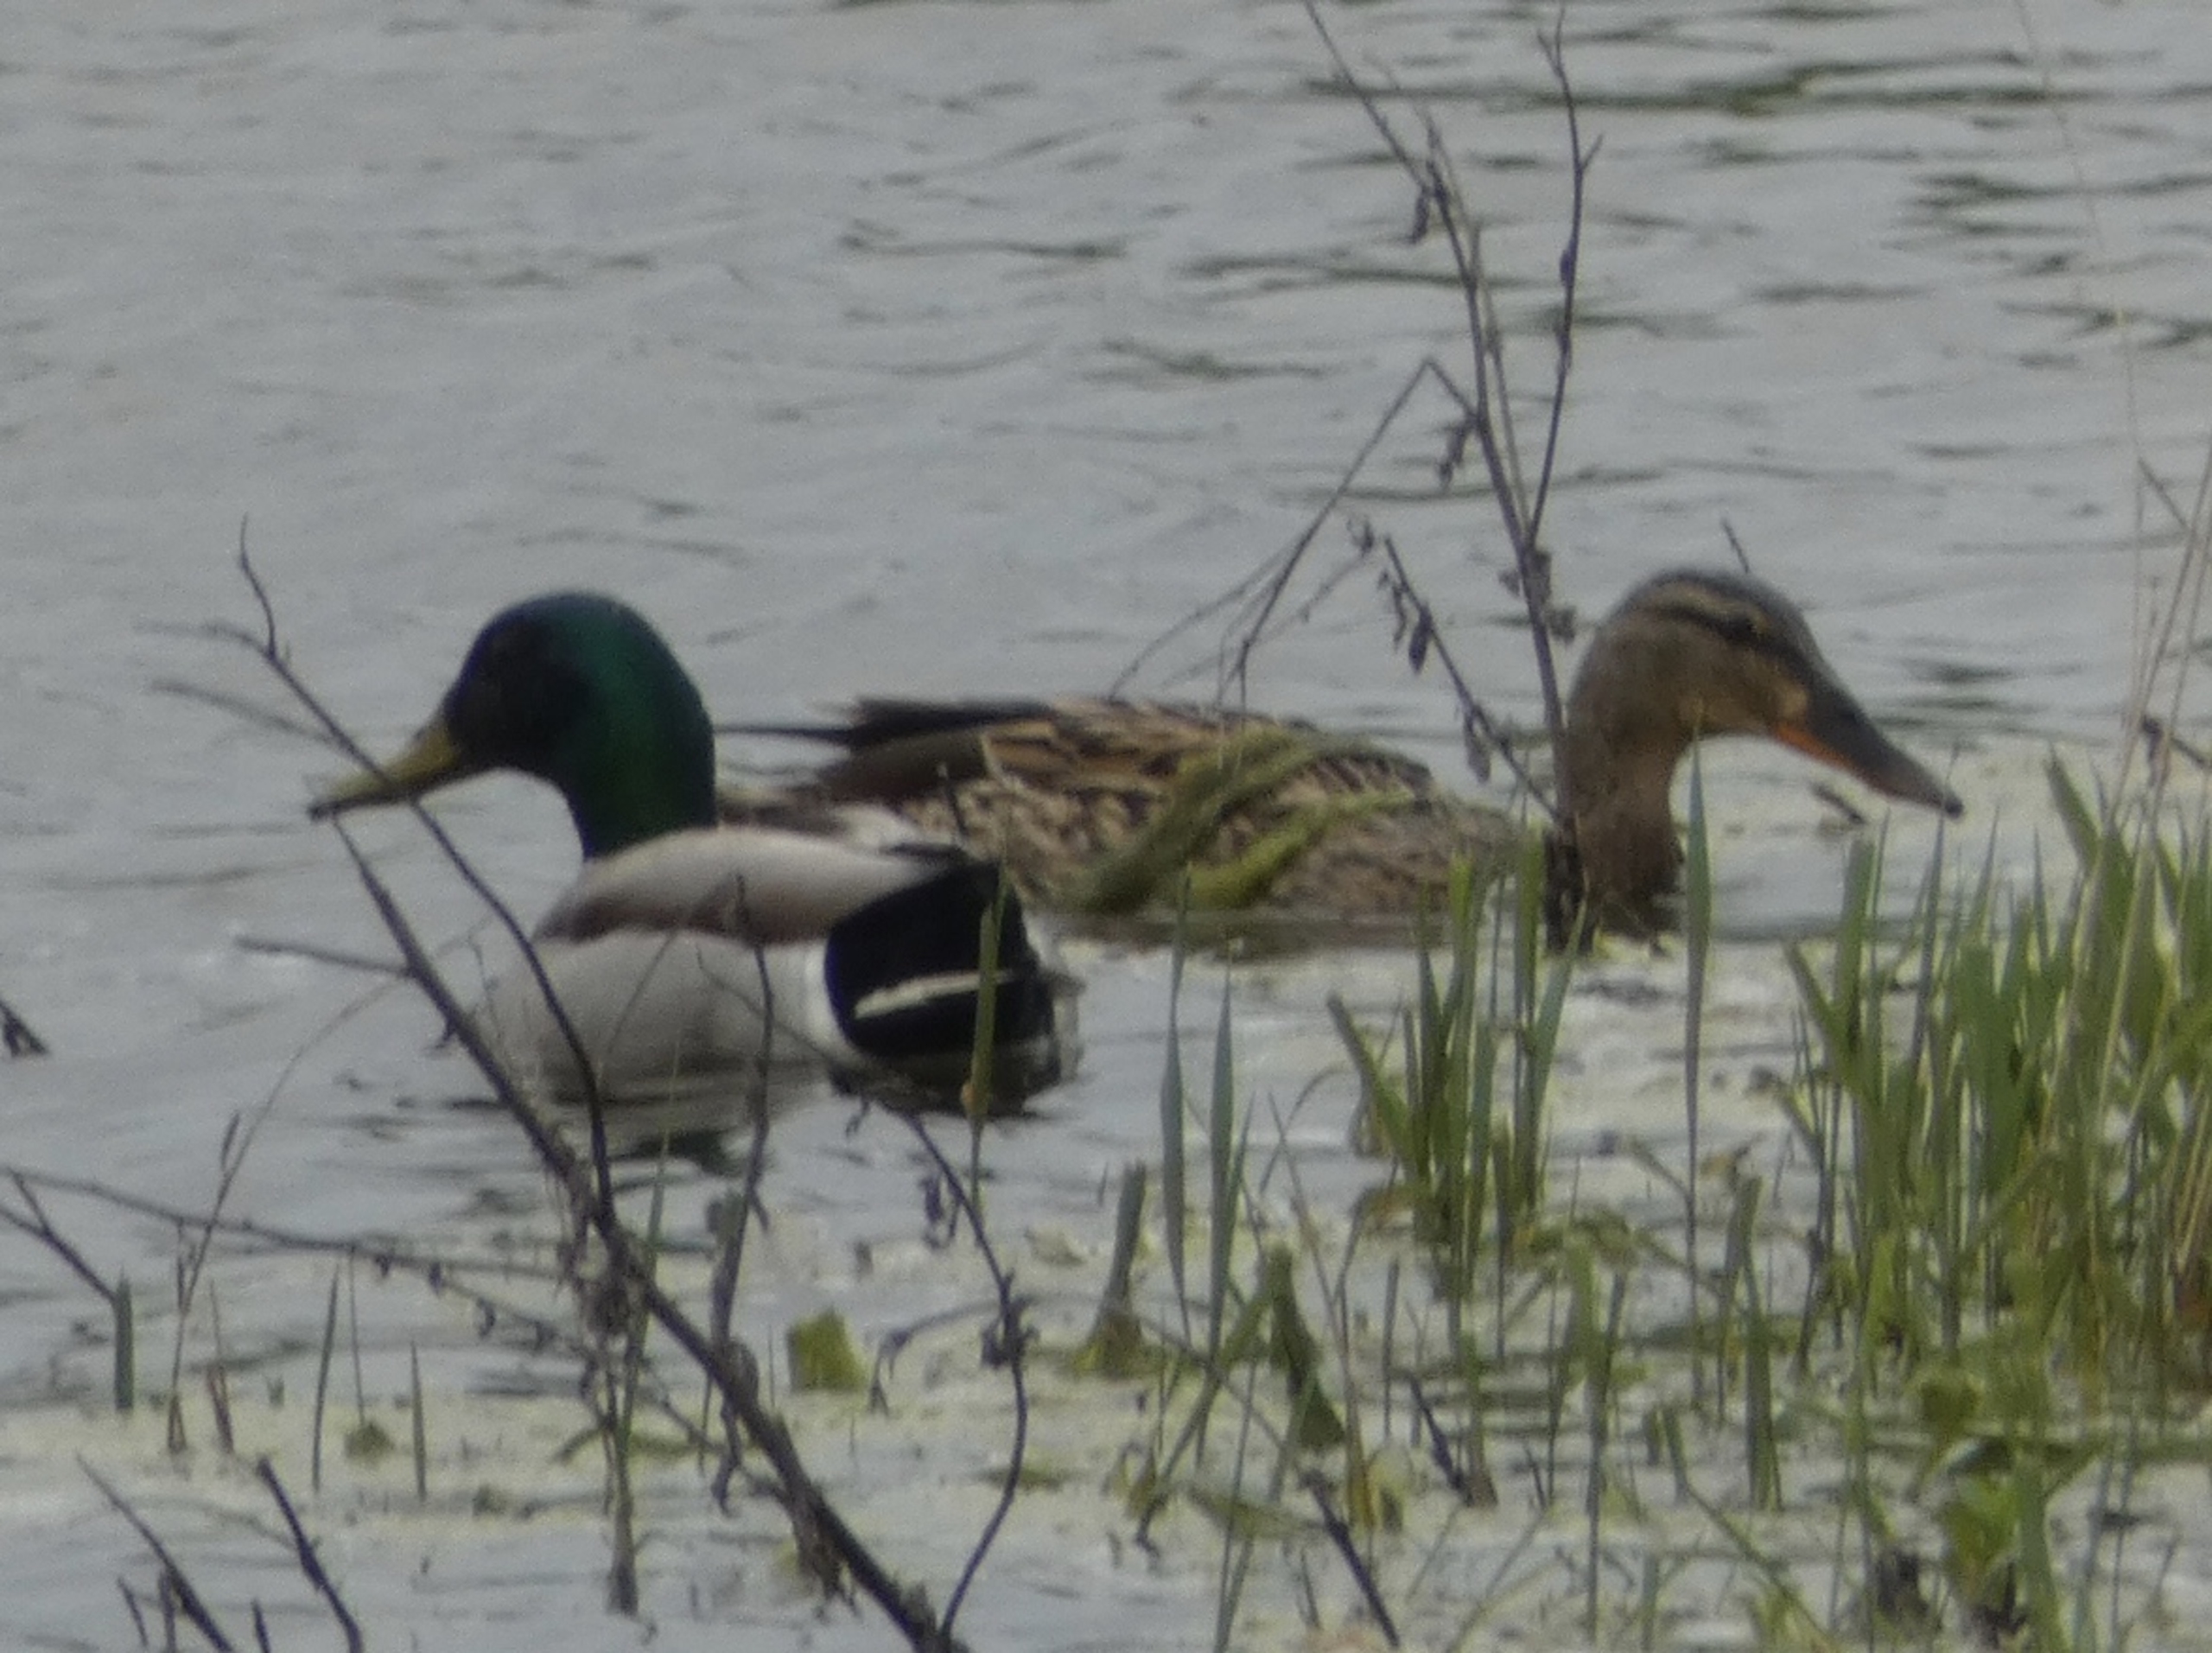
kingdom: Animalia
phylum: Chordata
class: Aves
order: Anseriformes
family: Anatidae
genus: Anas
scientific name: Anas platyrhynchos
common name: Gråand
